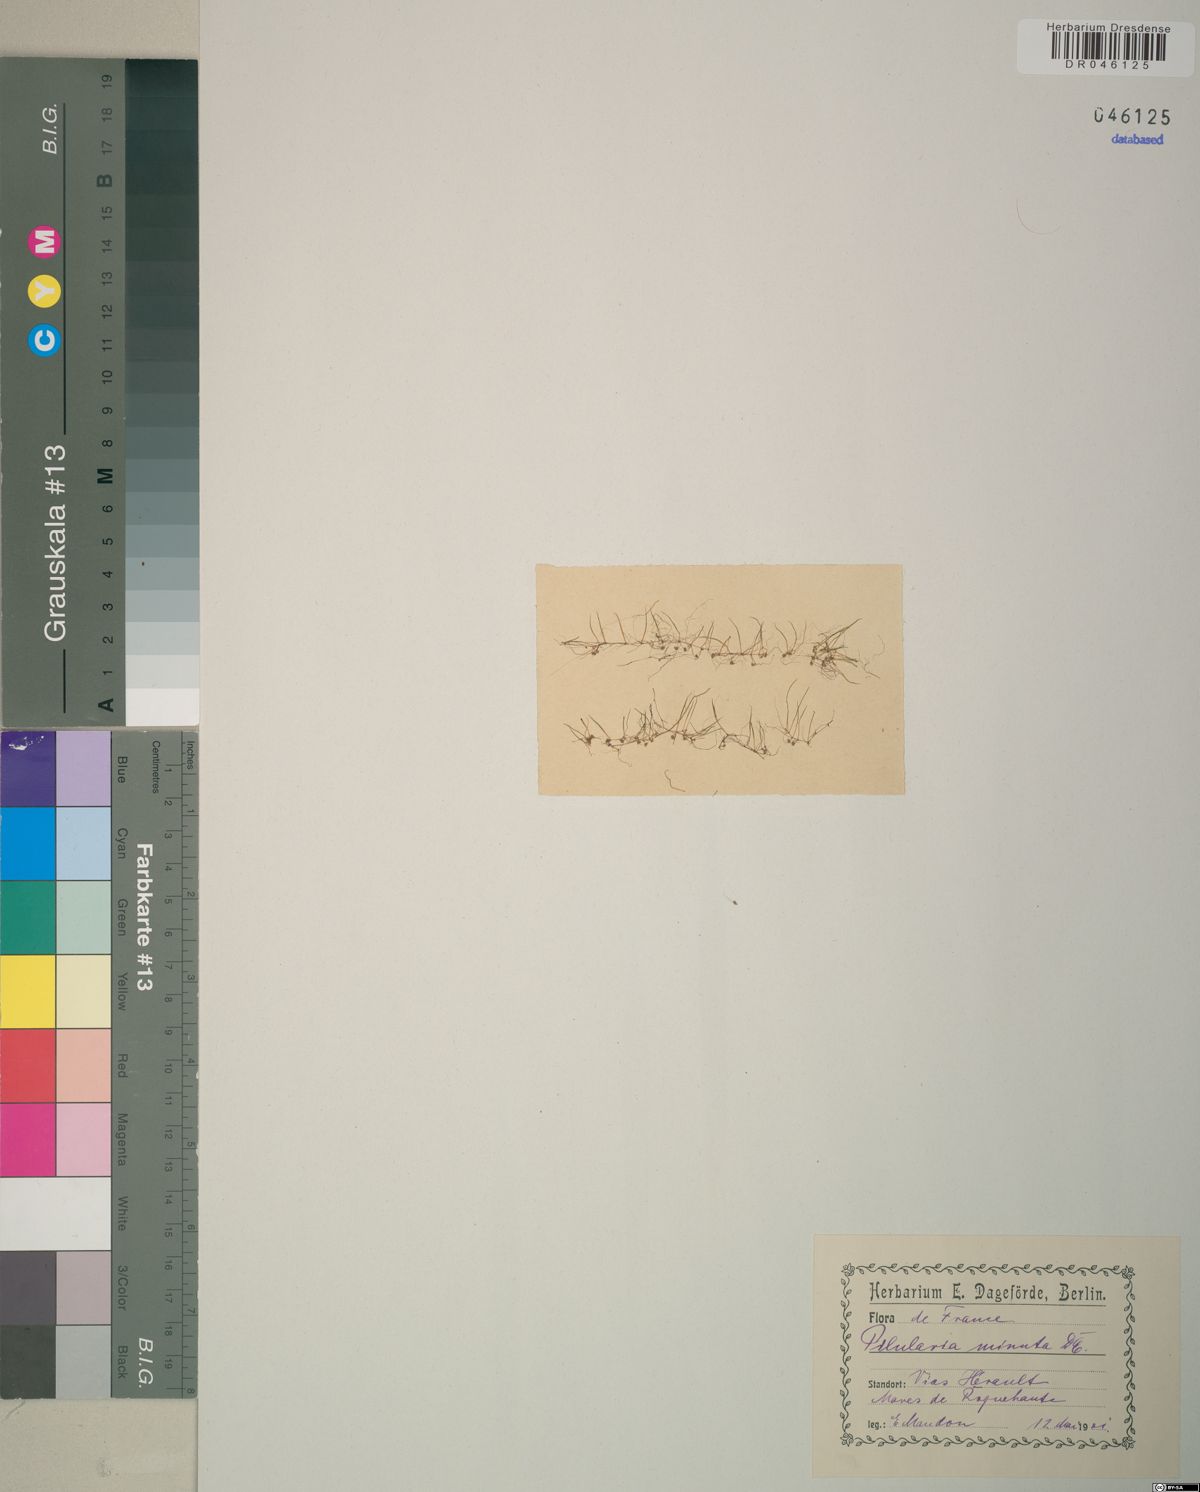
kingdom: Plantae
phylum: Tracheophyta
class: Polypodiopsida
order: Salviniales
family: Marsileaceae
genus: Pilularia
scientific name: Pilularia minuta
